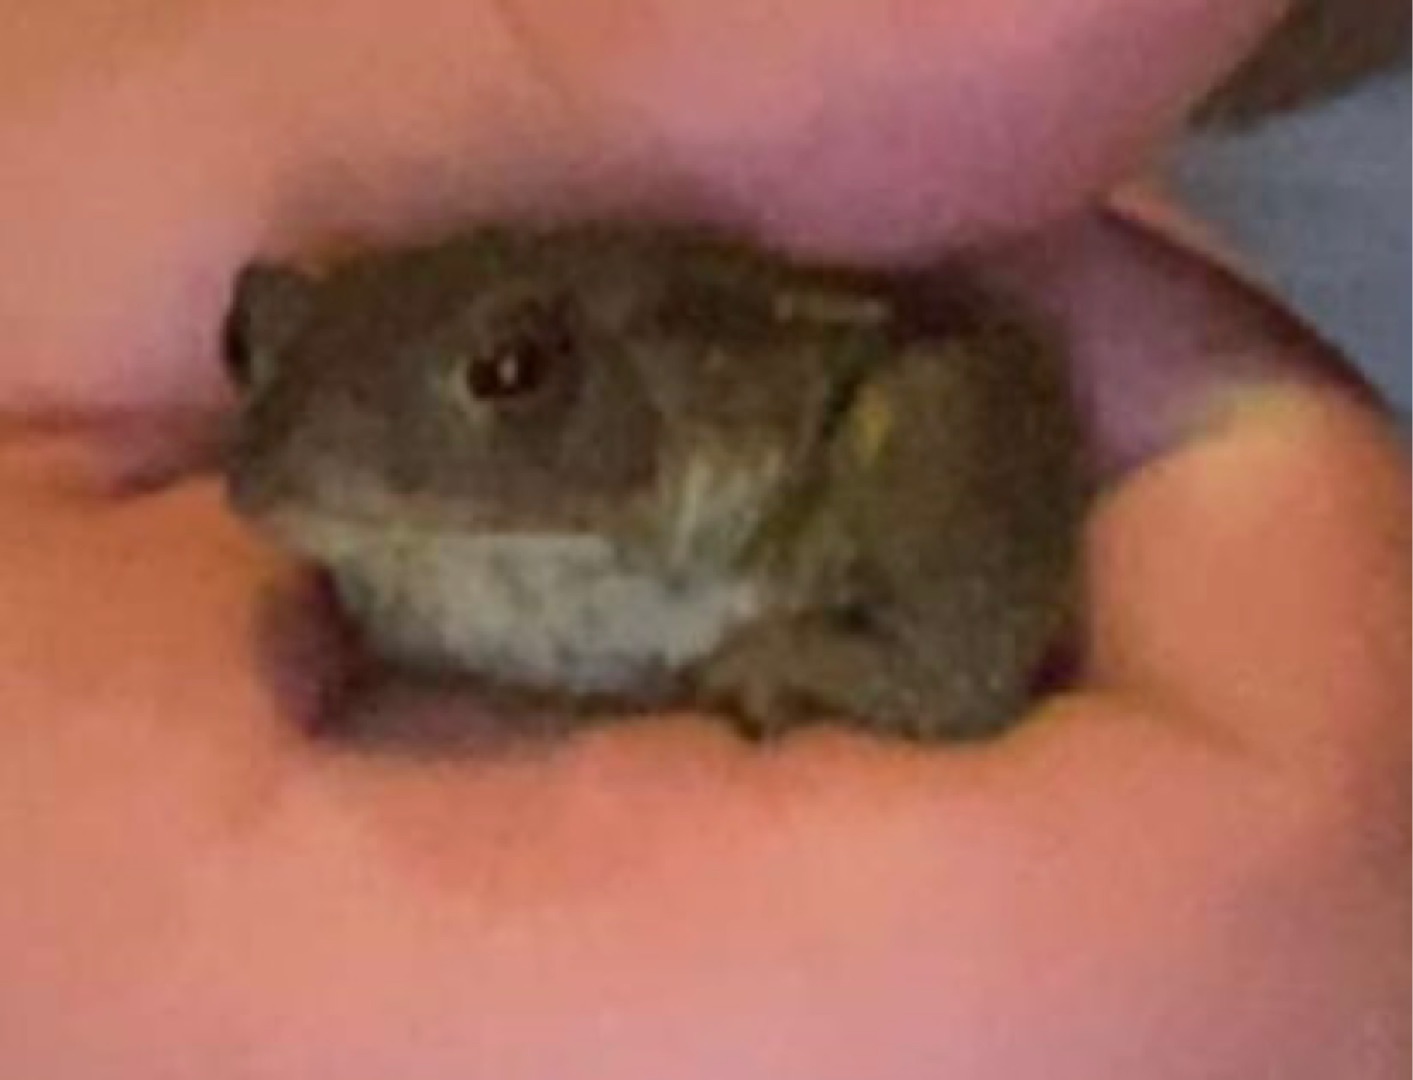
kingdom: Animalia
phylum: Chordata
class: Amphibia
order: Anura
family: Bufonidae
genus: Bufo
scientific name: Bufo bufo
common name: Skrubtudse
